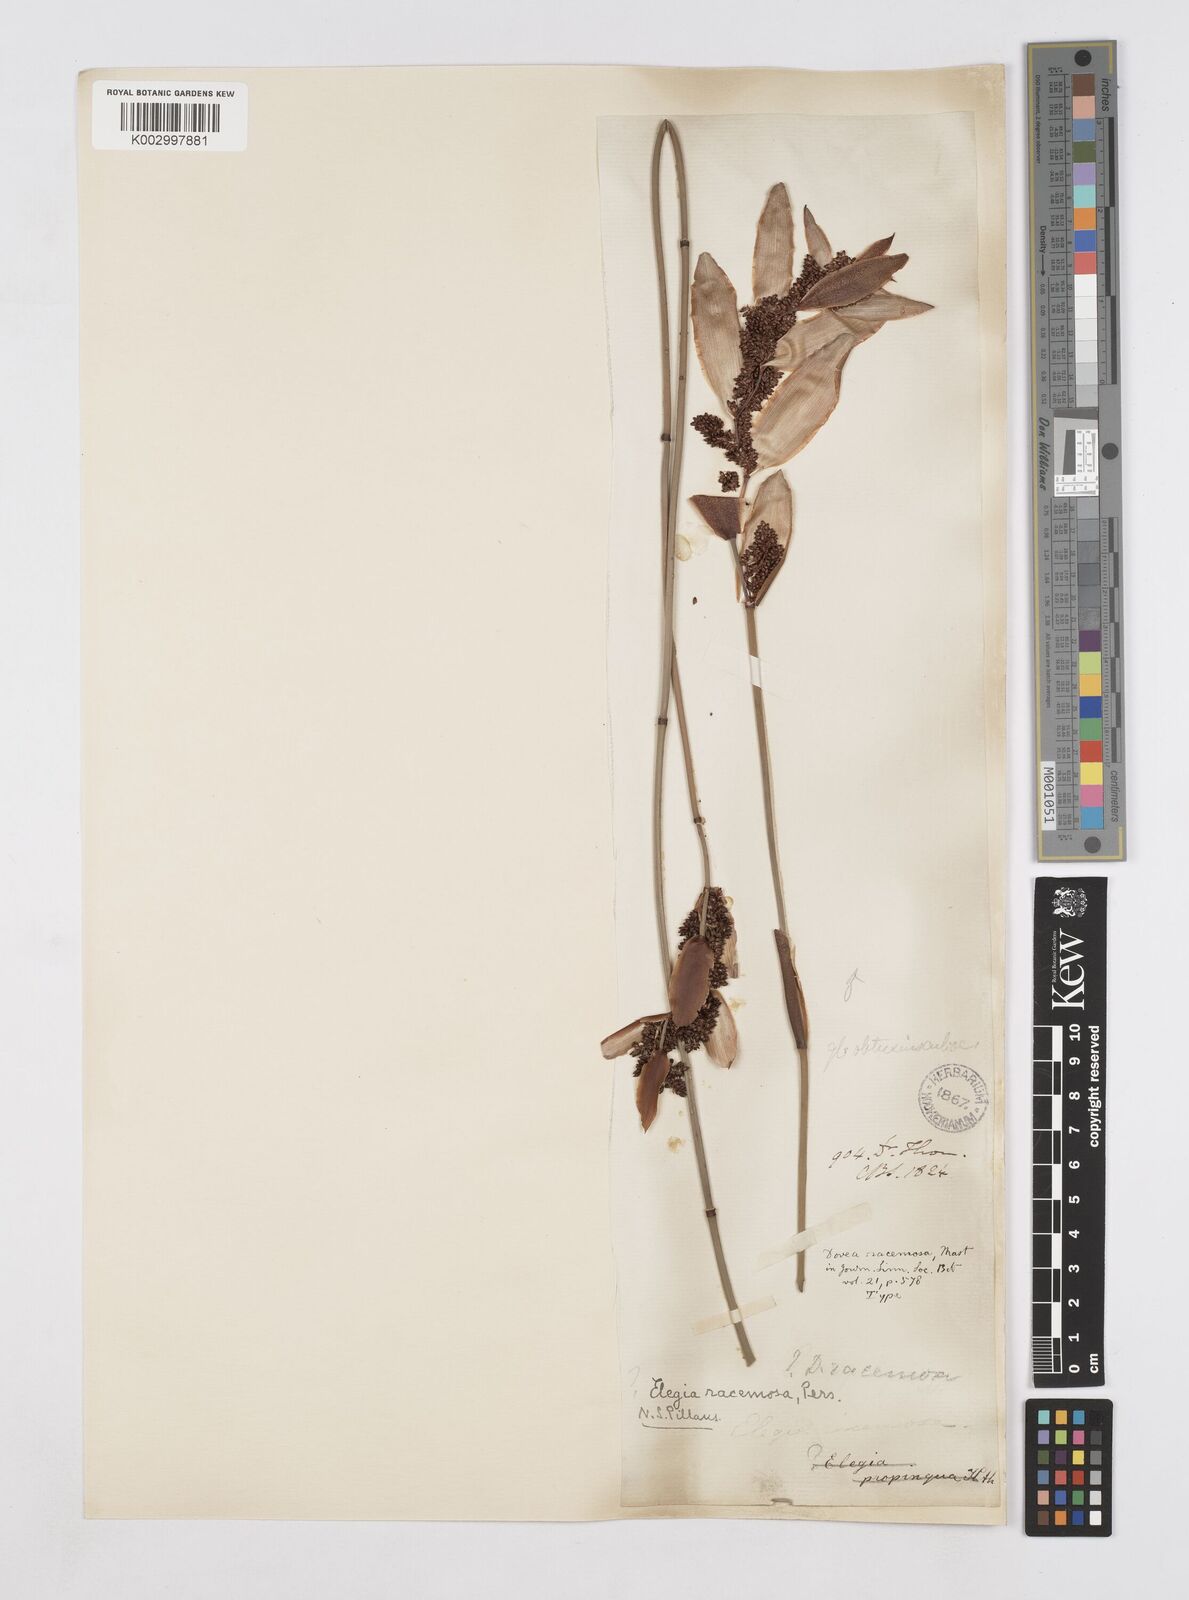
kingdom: Plantae
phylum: Tracheophyta
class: Liliopsida
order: Poales
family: Restionaceae
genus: Elegia
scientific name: Elegia racemosa
